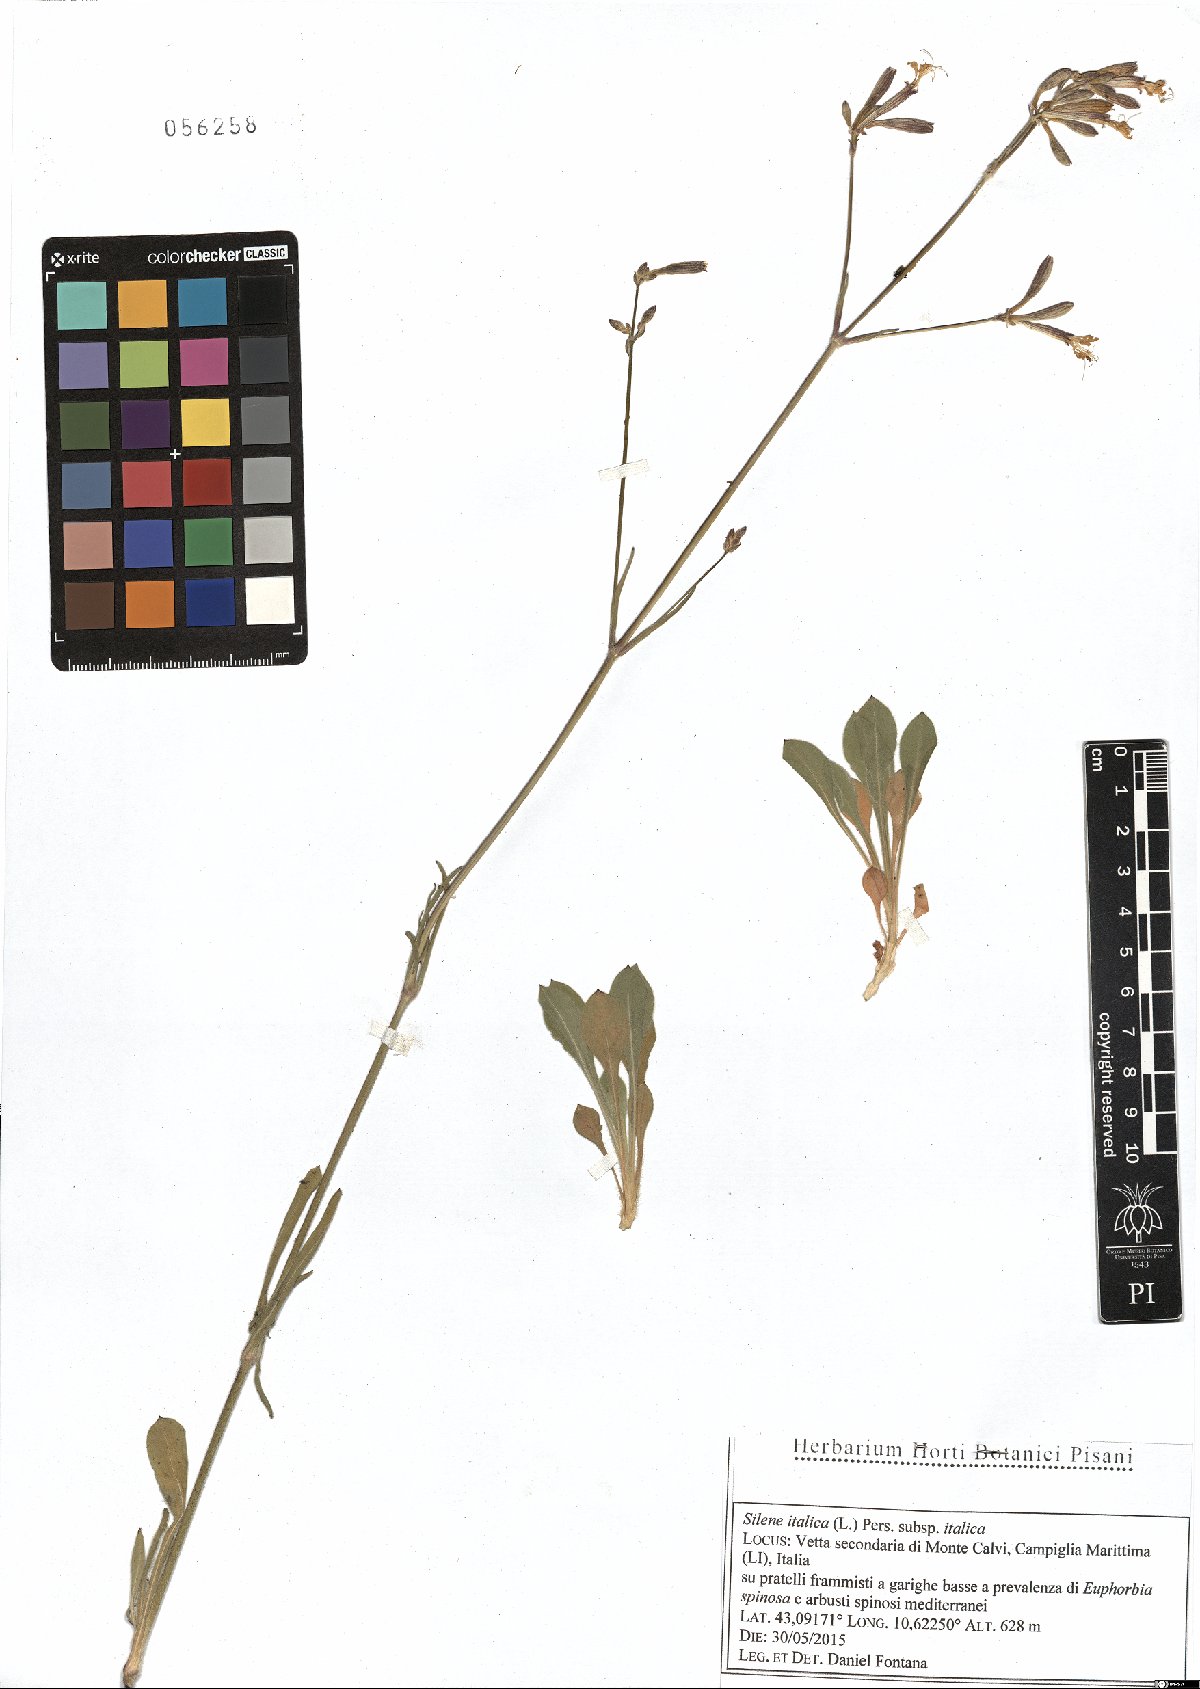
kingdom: Plantae
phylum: Tracheophyta
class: Magnoliopsida
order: Caryophyllales
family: Caryophyllaceae
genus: Silene
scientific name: Silene italica
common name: Italian catchfly
